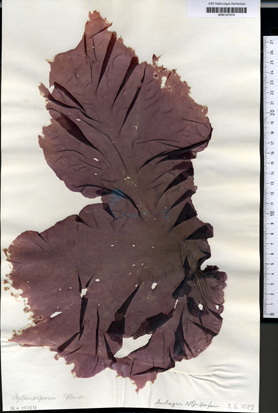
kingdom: Plantae
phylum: Rhodophyta
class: Bangiophyceae
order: Bangiales
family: Bangiaceae
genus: Porphyra
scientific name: Porphyra umbilicalis
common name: Purple laver
